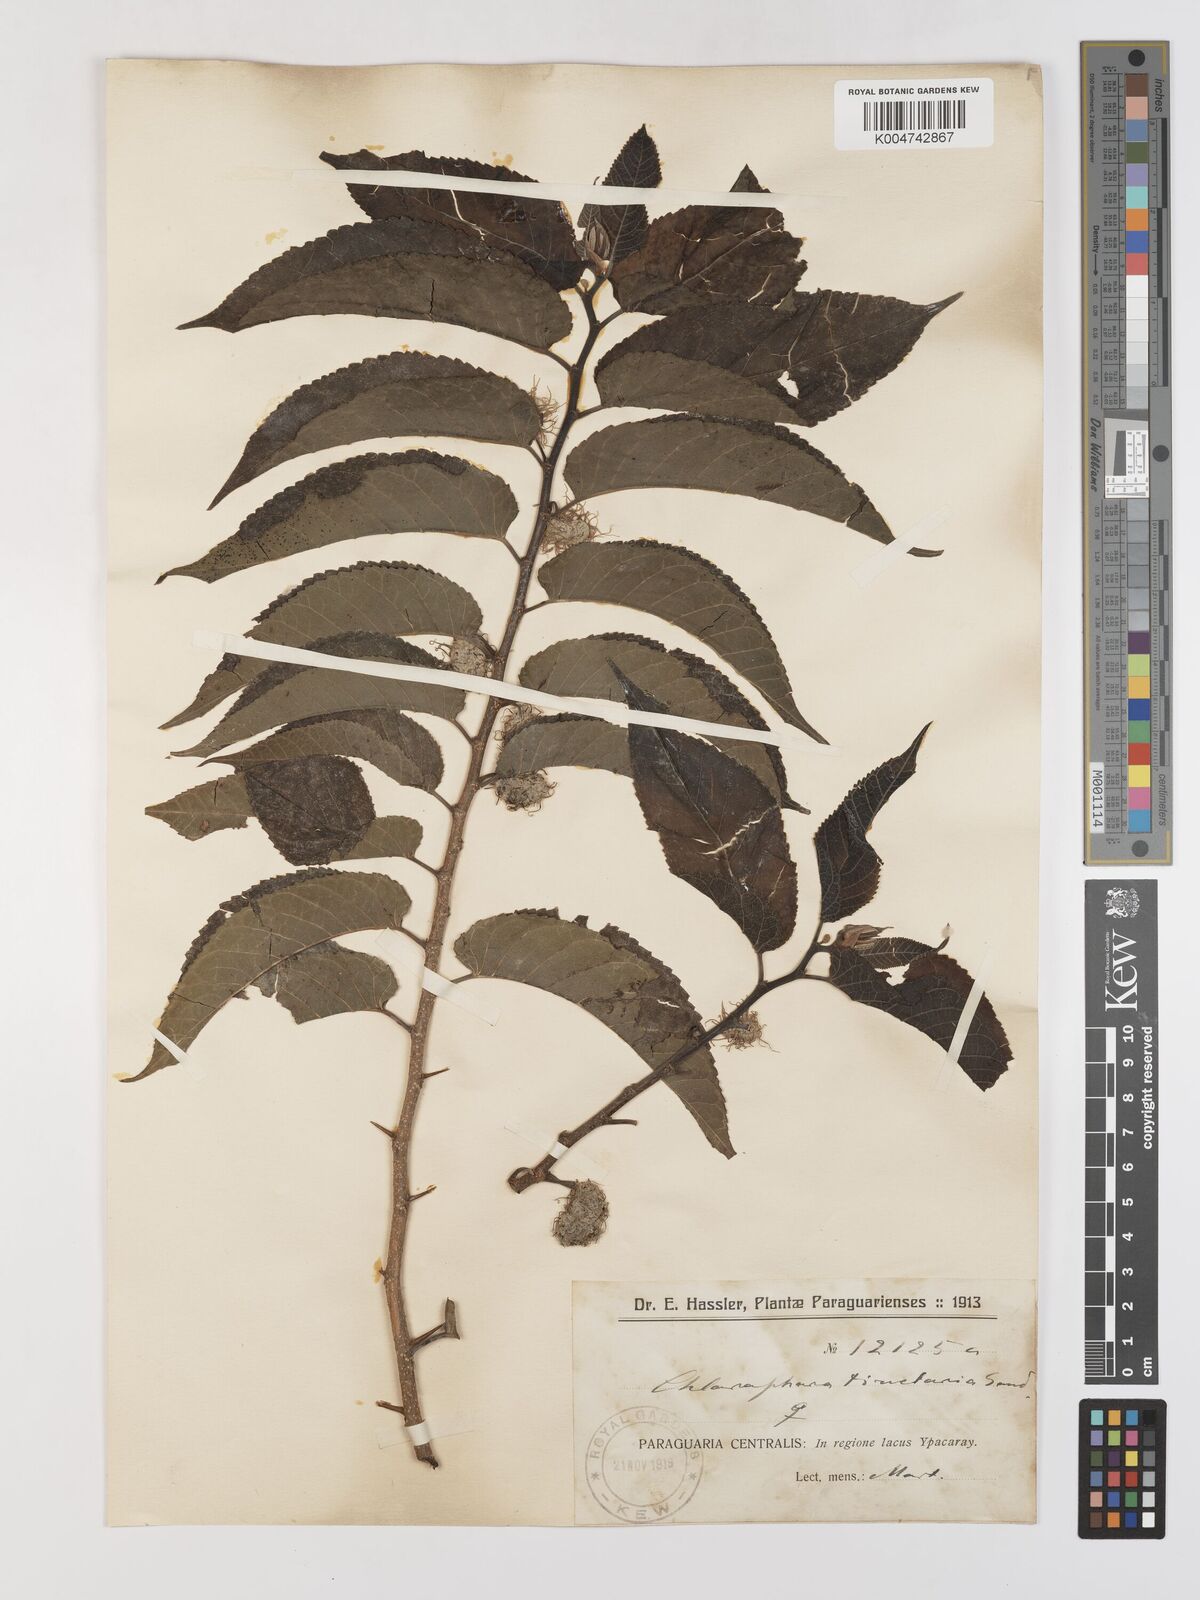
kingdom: Plantae
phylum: Tracheophyta
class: Magnoliopsida
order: Rosales
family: Moraceae
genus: Maclura
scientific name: Maclura tinctoria
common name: Old fustic
